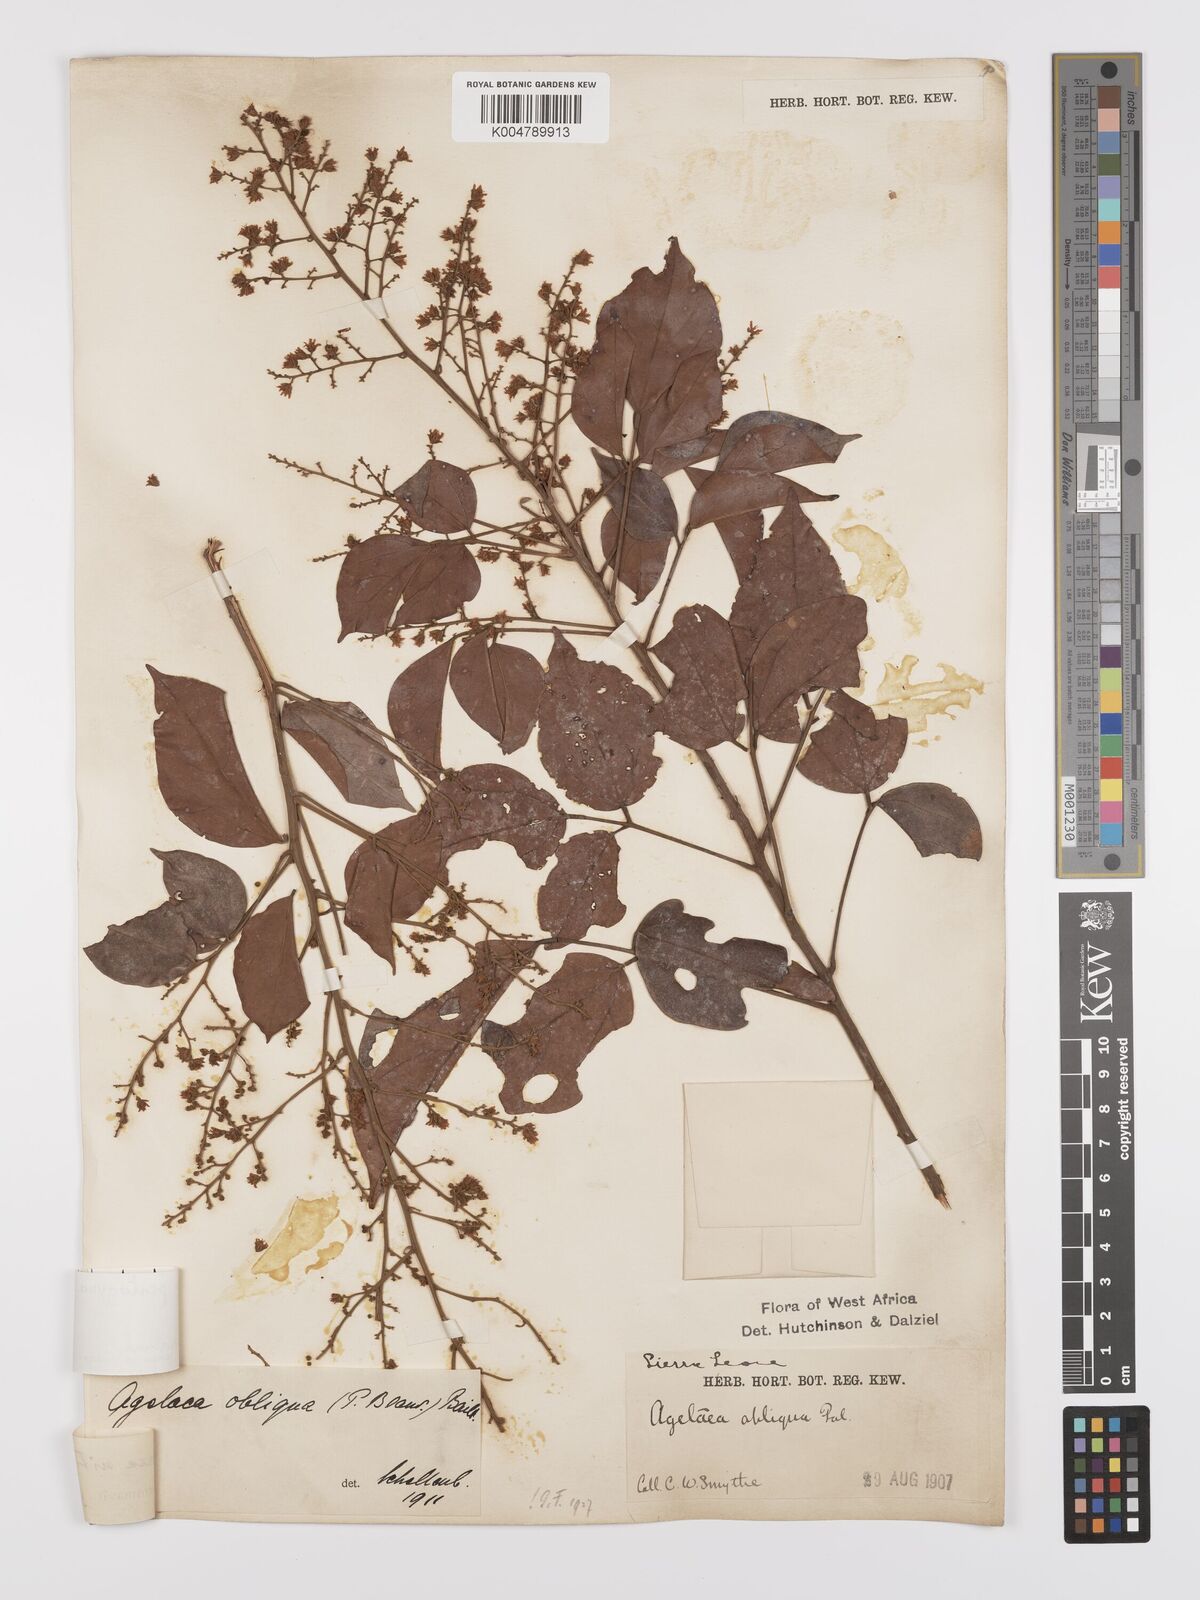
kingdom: Plantae
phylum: Tracheophyta
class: Magnoliopsida
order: Oxalidales
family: Connaraceae
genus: Agelaea
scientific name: Agelaea pentagyna
